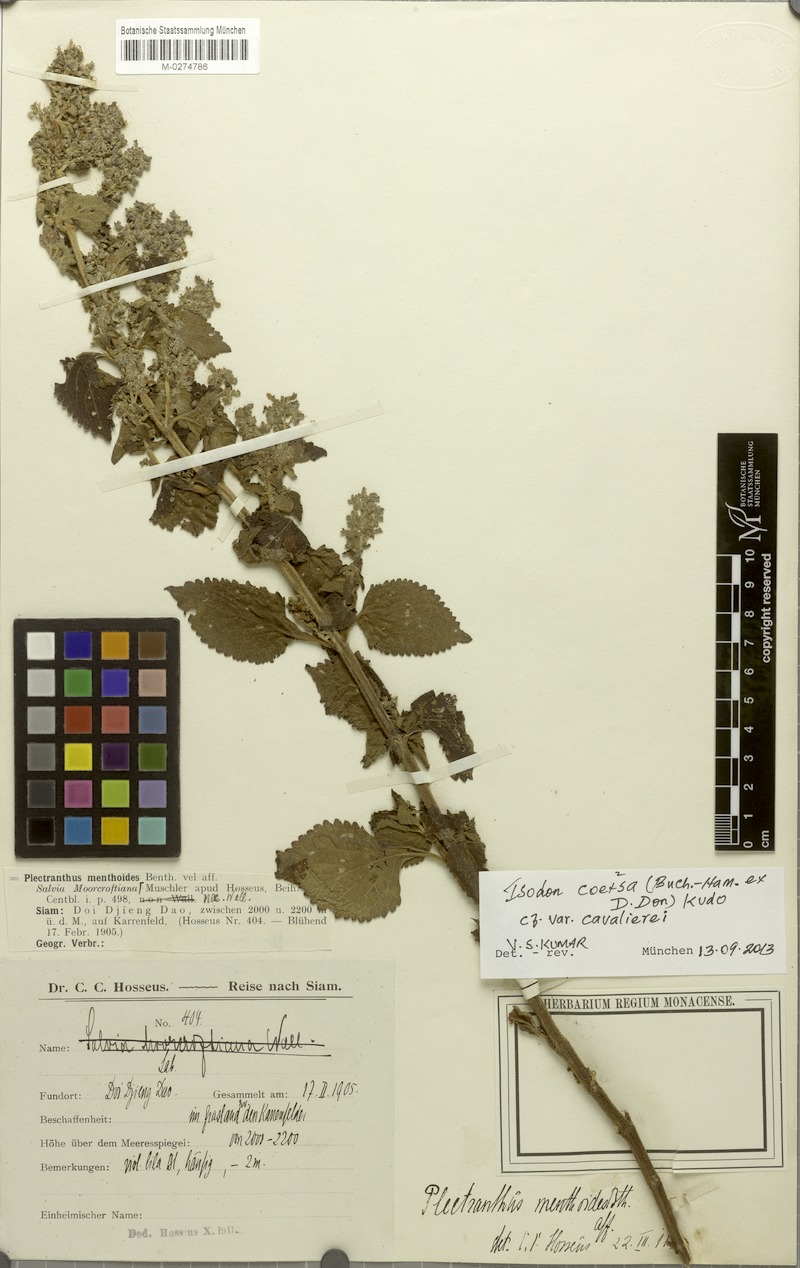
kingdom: Plantae
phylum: Tracheophyta
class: Magnoliopsida
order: Lamiales
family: Lamiaceae
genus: Isodon
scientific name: Isodon coetsa
